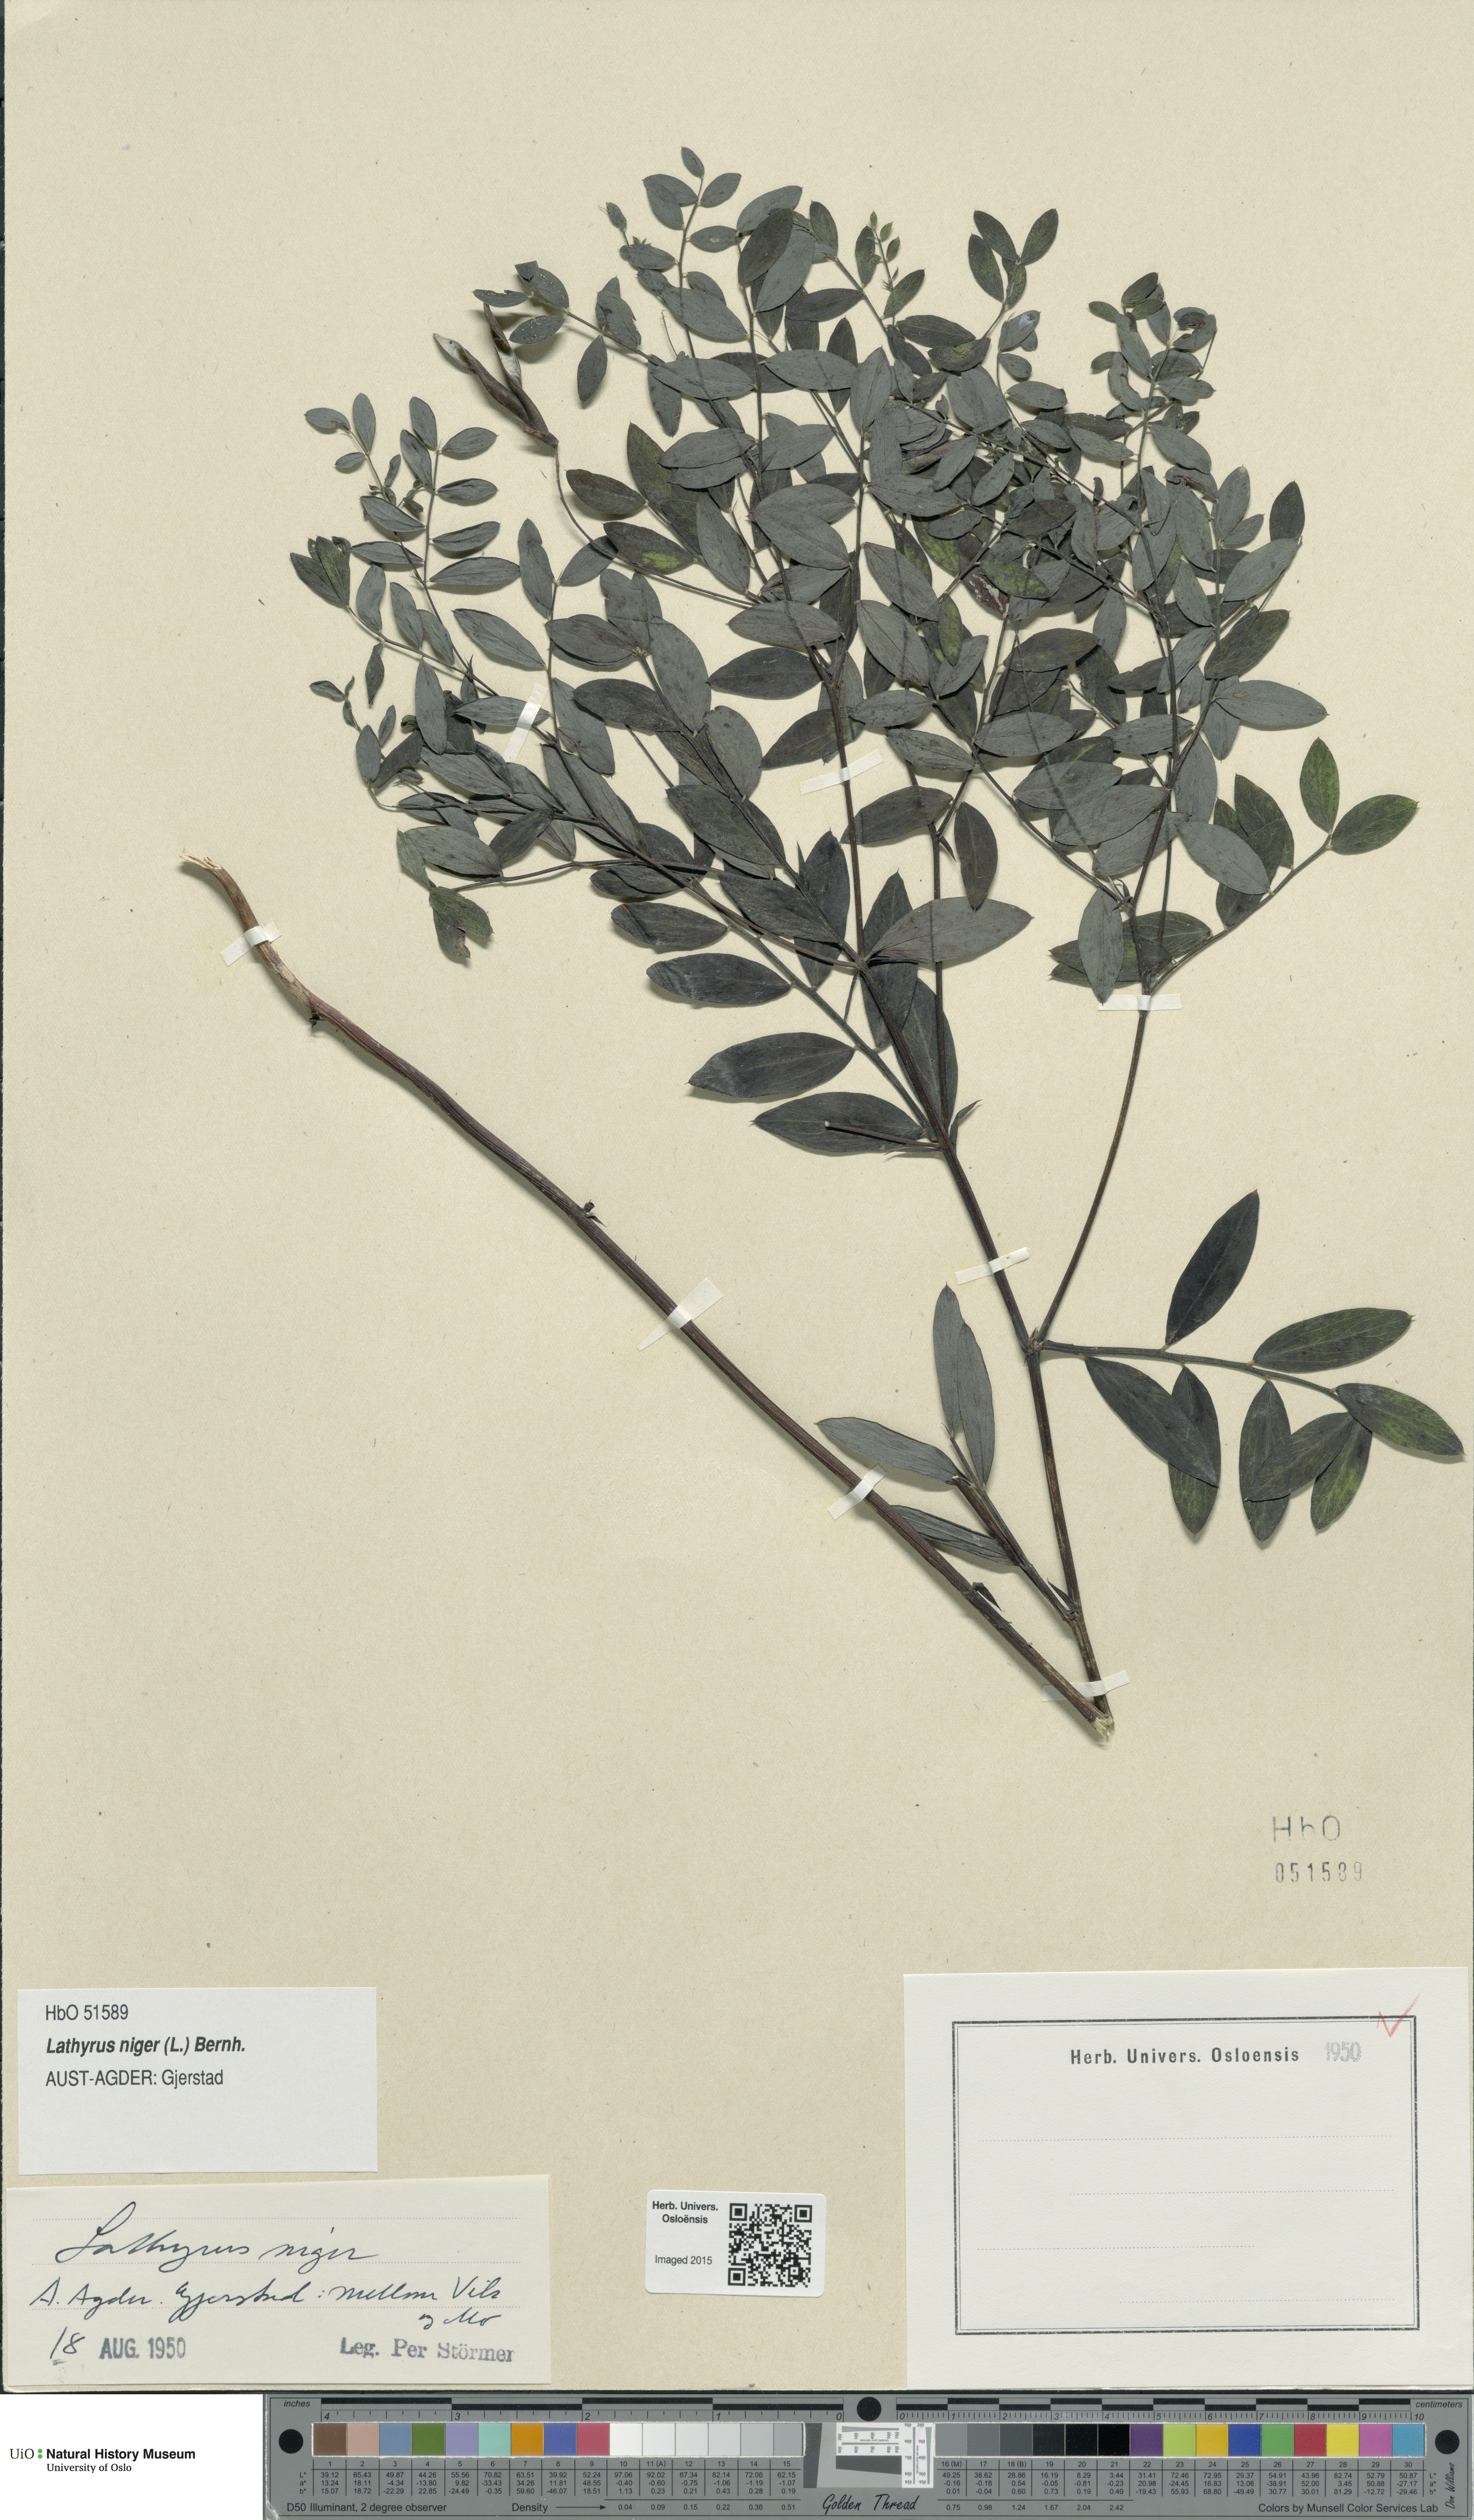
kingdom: Plantae
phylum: Tracheophyta
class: Magnoliopsida
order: Fabales
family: Fabaceae
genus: Lathyrus
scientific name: Lathyrus niger
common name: Black pea
